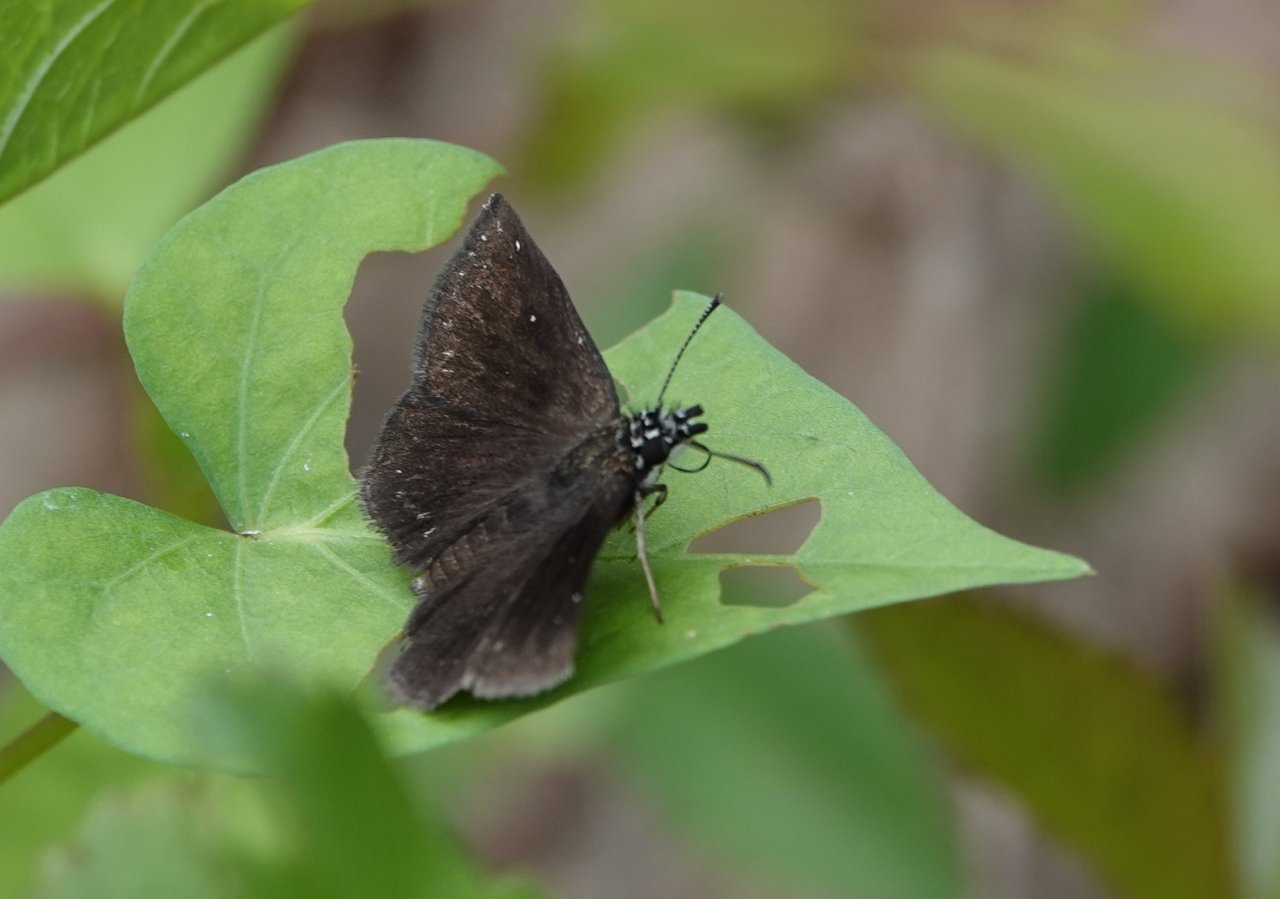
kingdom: Animalia
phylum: Arthropoda
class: Insecta
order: Lepidoptera
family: Hesperiidae
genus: Pholisora
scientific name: Pholisora catullus
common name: Common Sootywing
